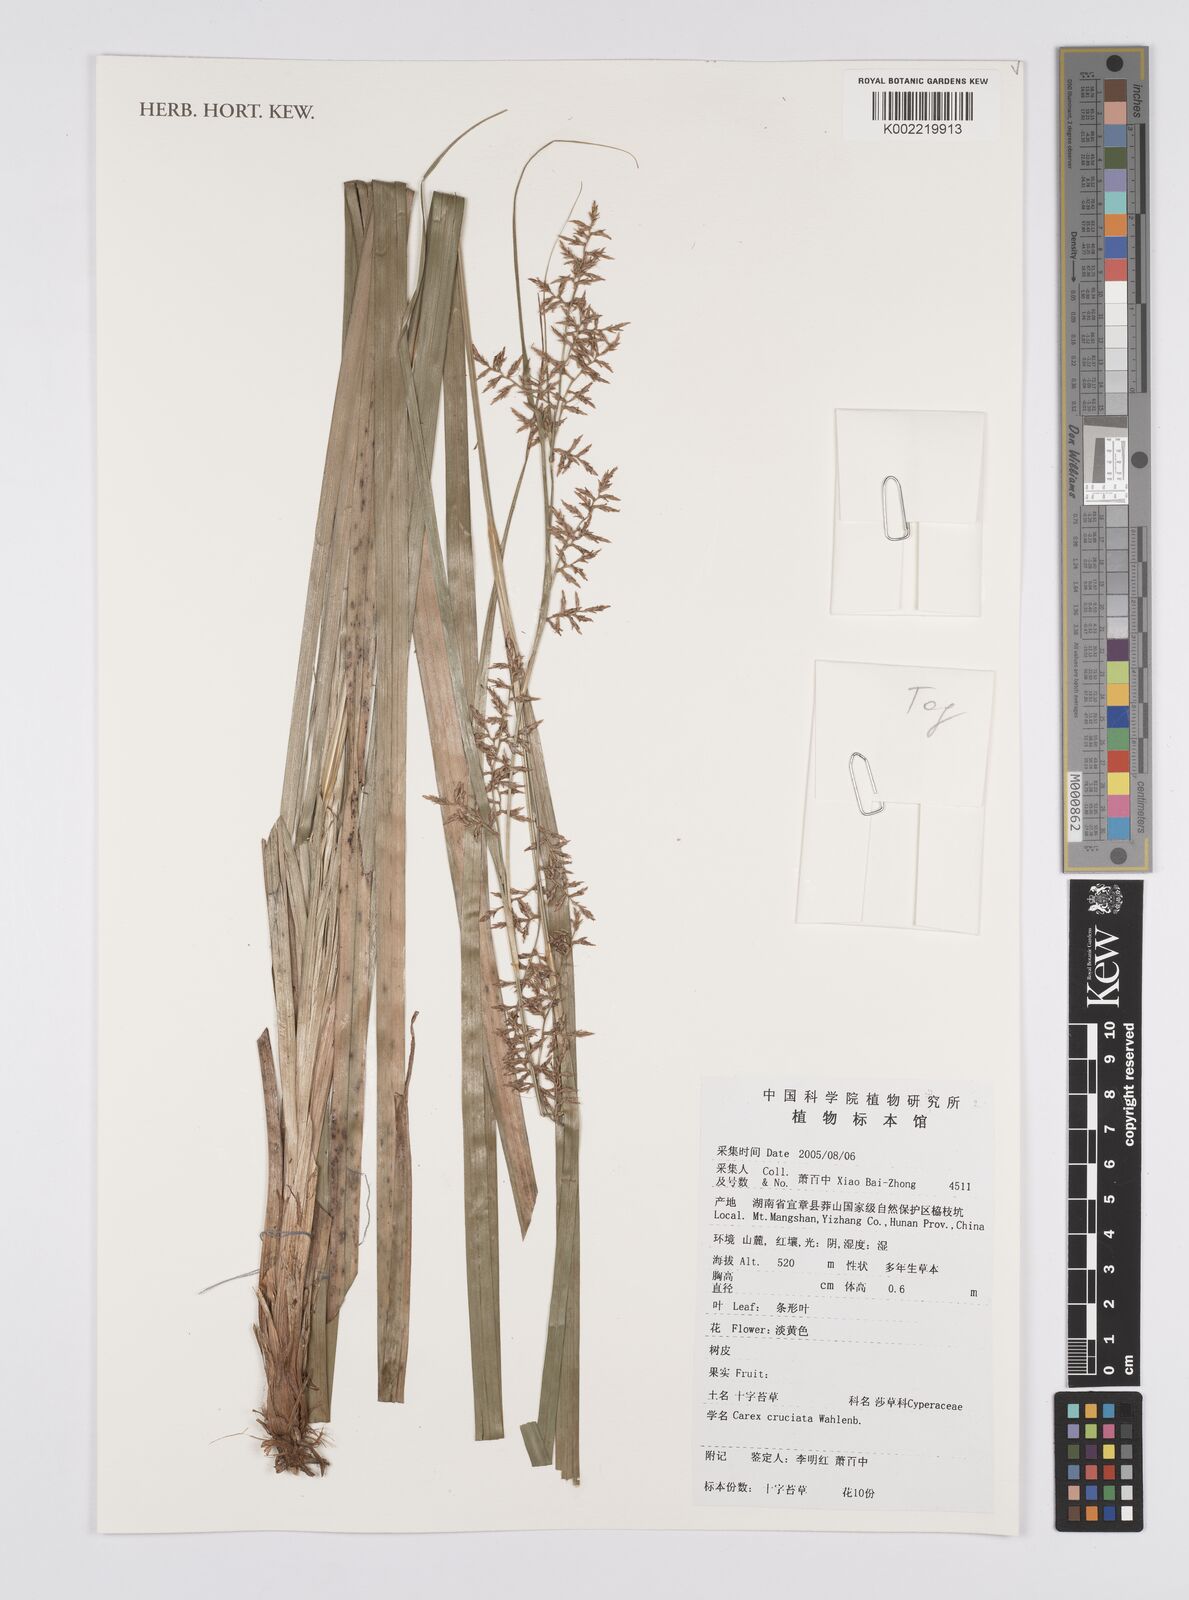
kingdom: Plantae
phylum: Tracheophyta
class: Liliopsida
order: Poales
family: Cyperaceae
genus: Carex
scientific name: Carex cruciata
